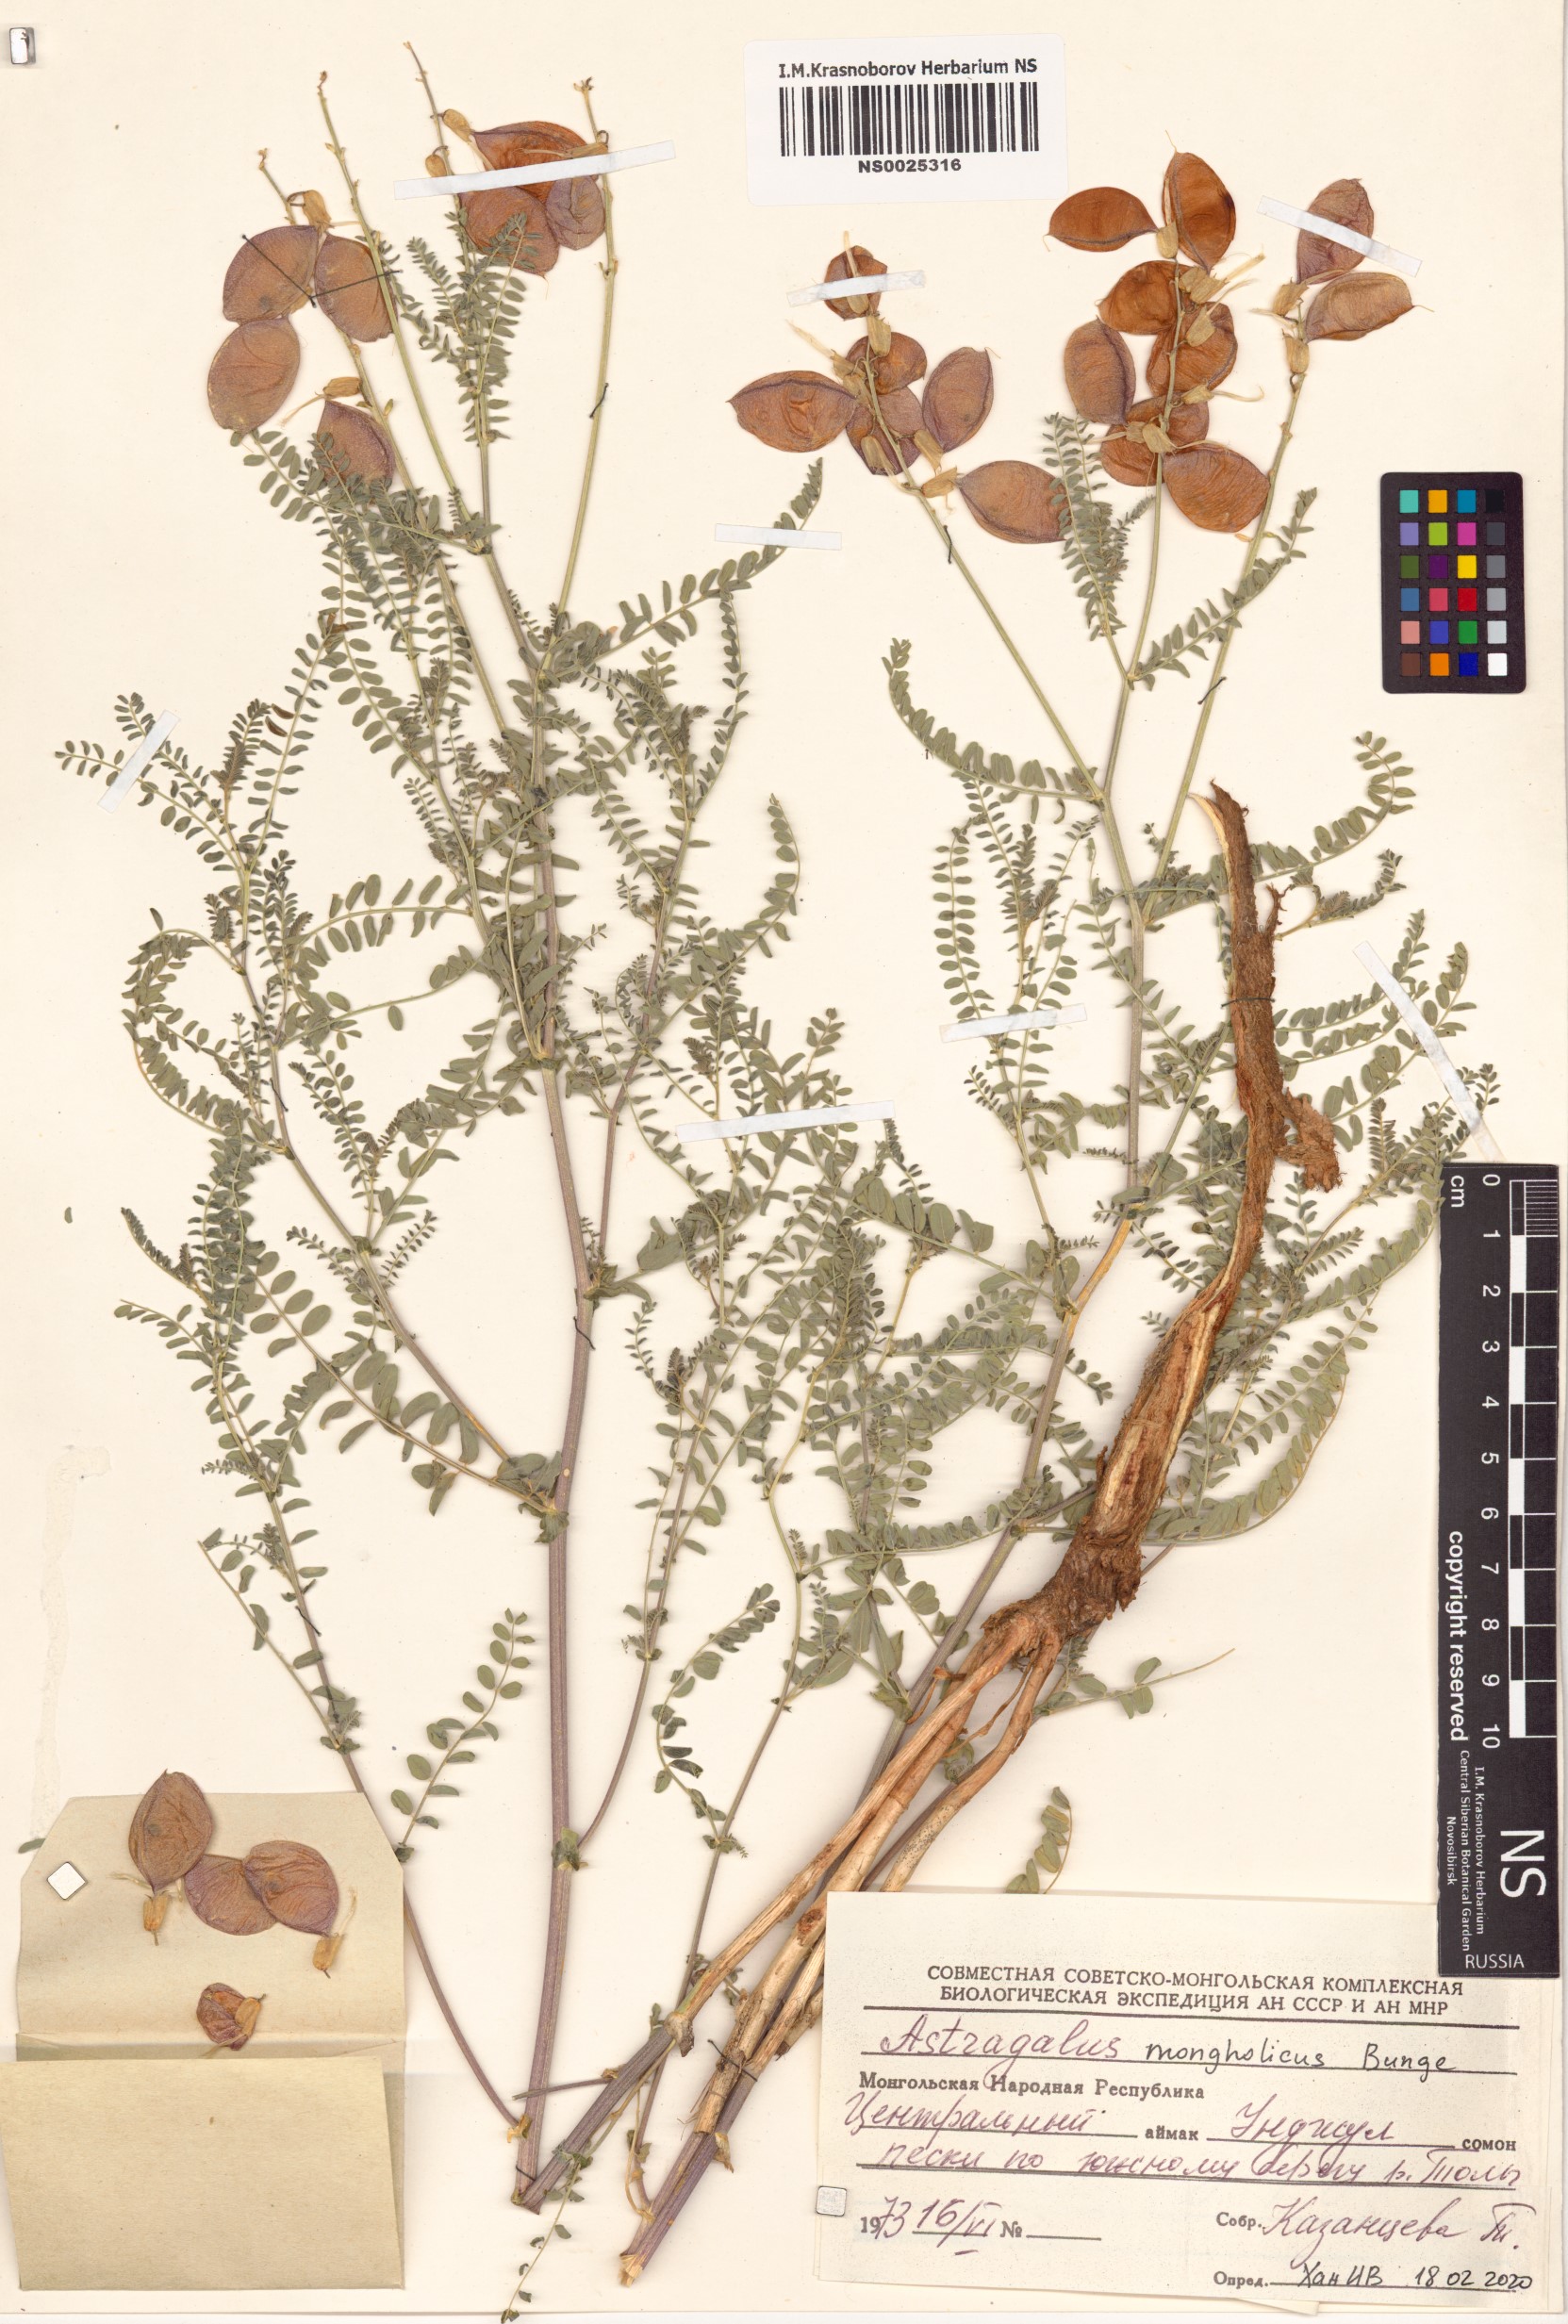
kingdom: Plantae
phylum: Tracheophyta
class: Magnoliopsida
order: Fabales
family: Fabaceae
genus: Astragalus
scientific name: Astragalus mongholicus
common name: Membranous milk-vetch
